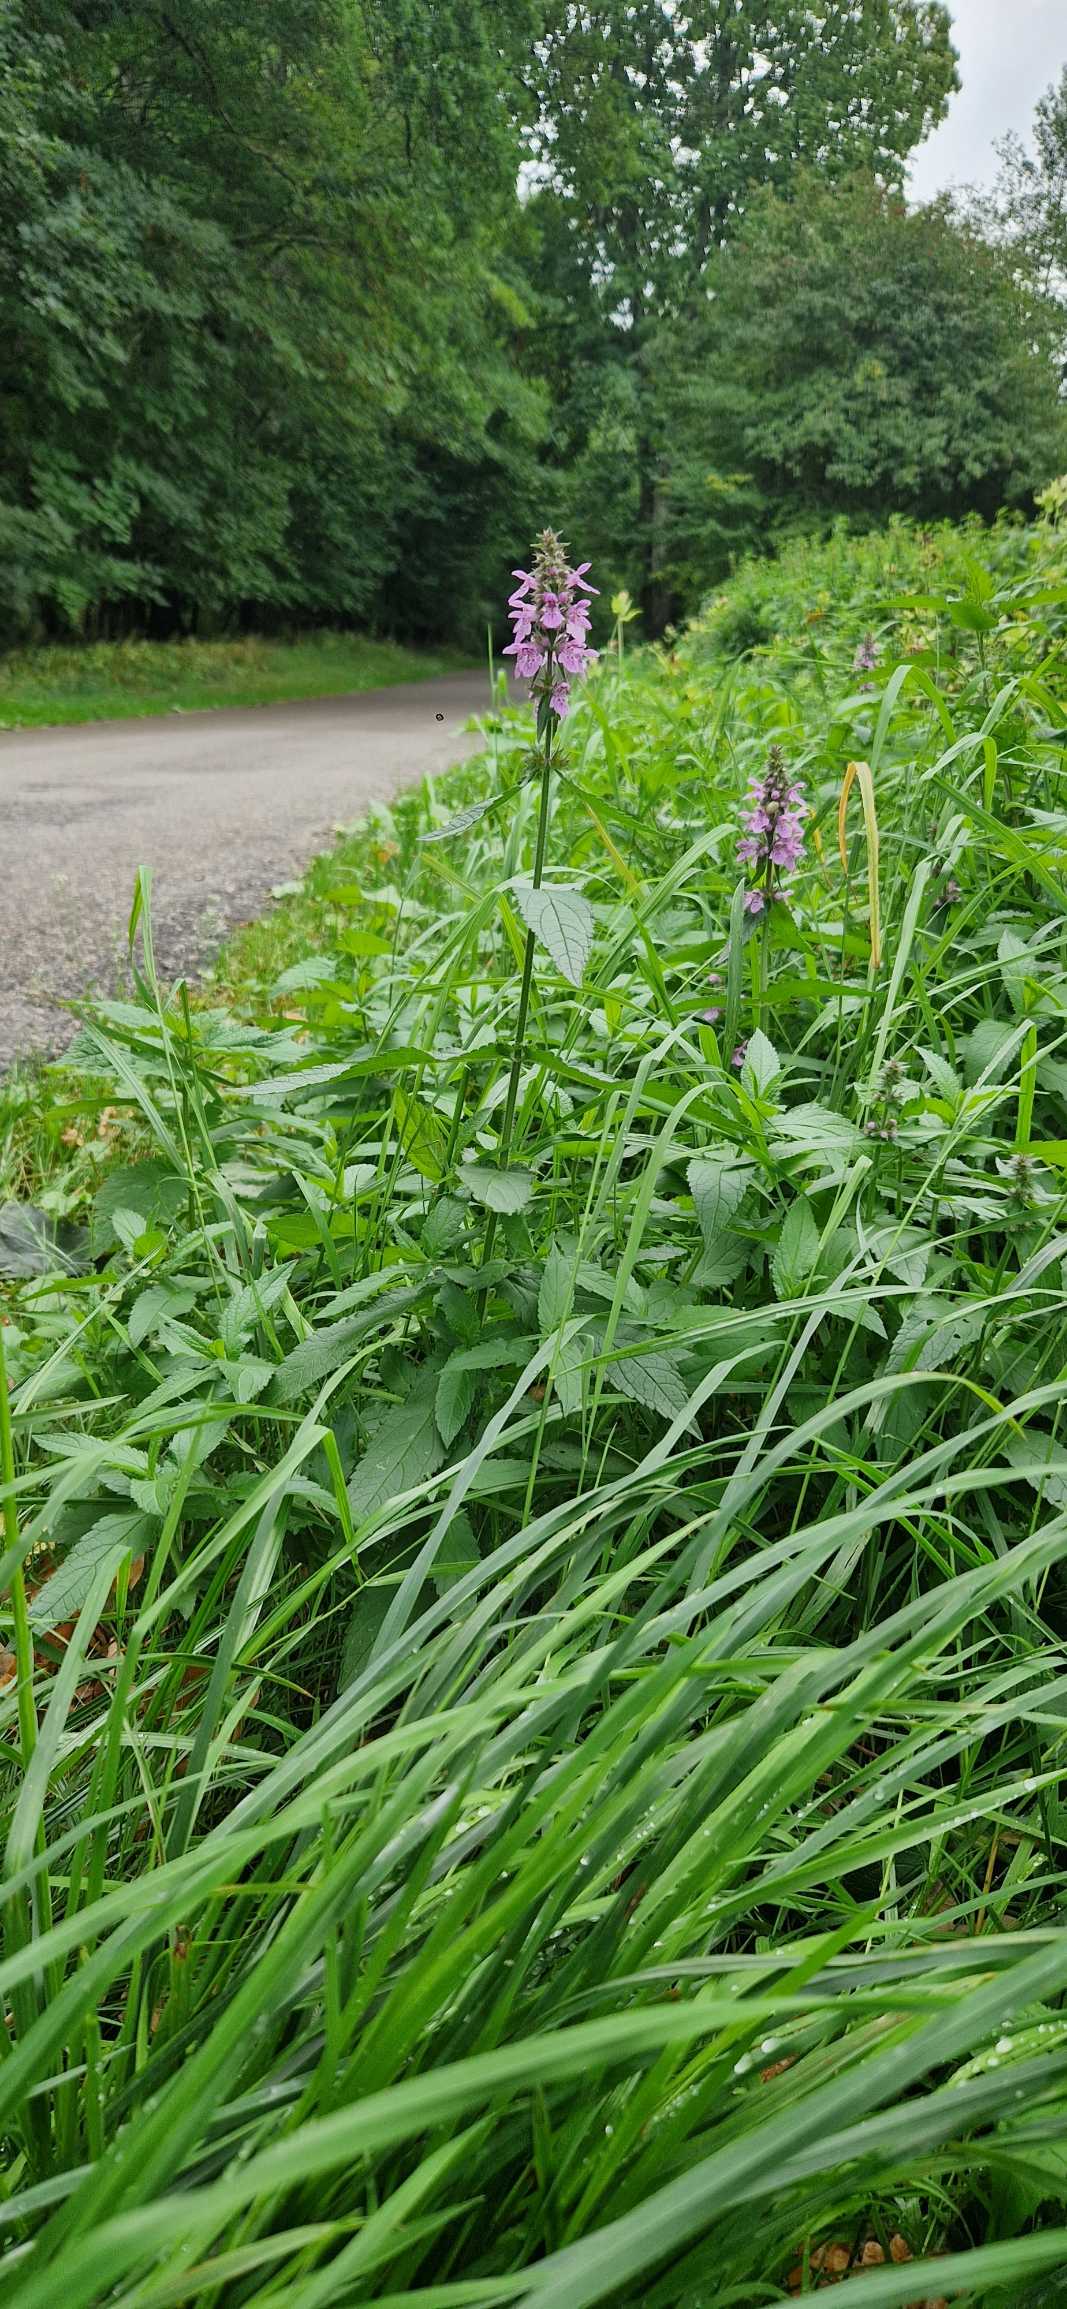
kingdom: Plantae
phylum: Tracheophyta
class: Magnoliopsida
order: Lamiales
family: Lamiaceae
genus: Stachys
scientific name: Stachys palustris
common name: Kær-galtetand
